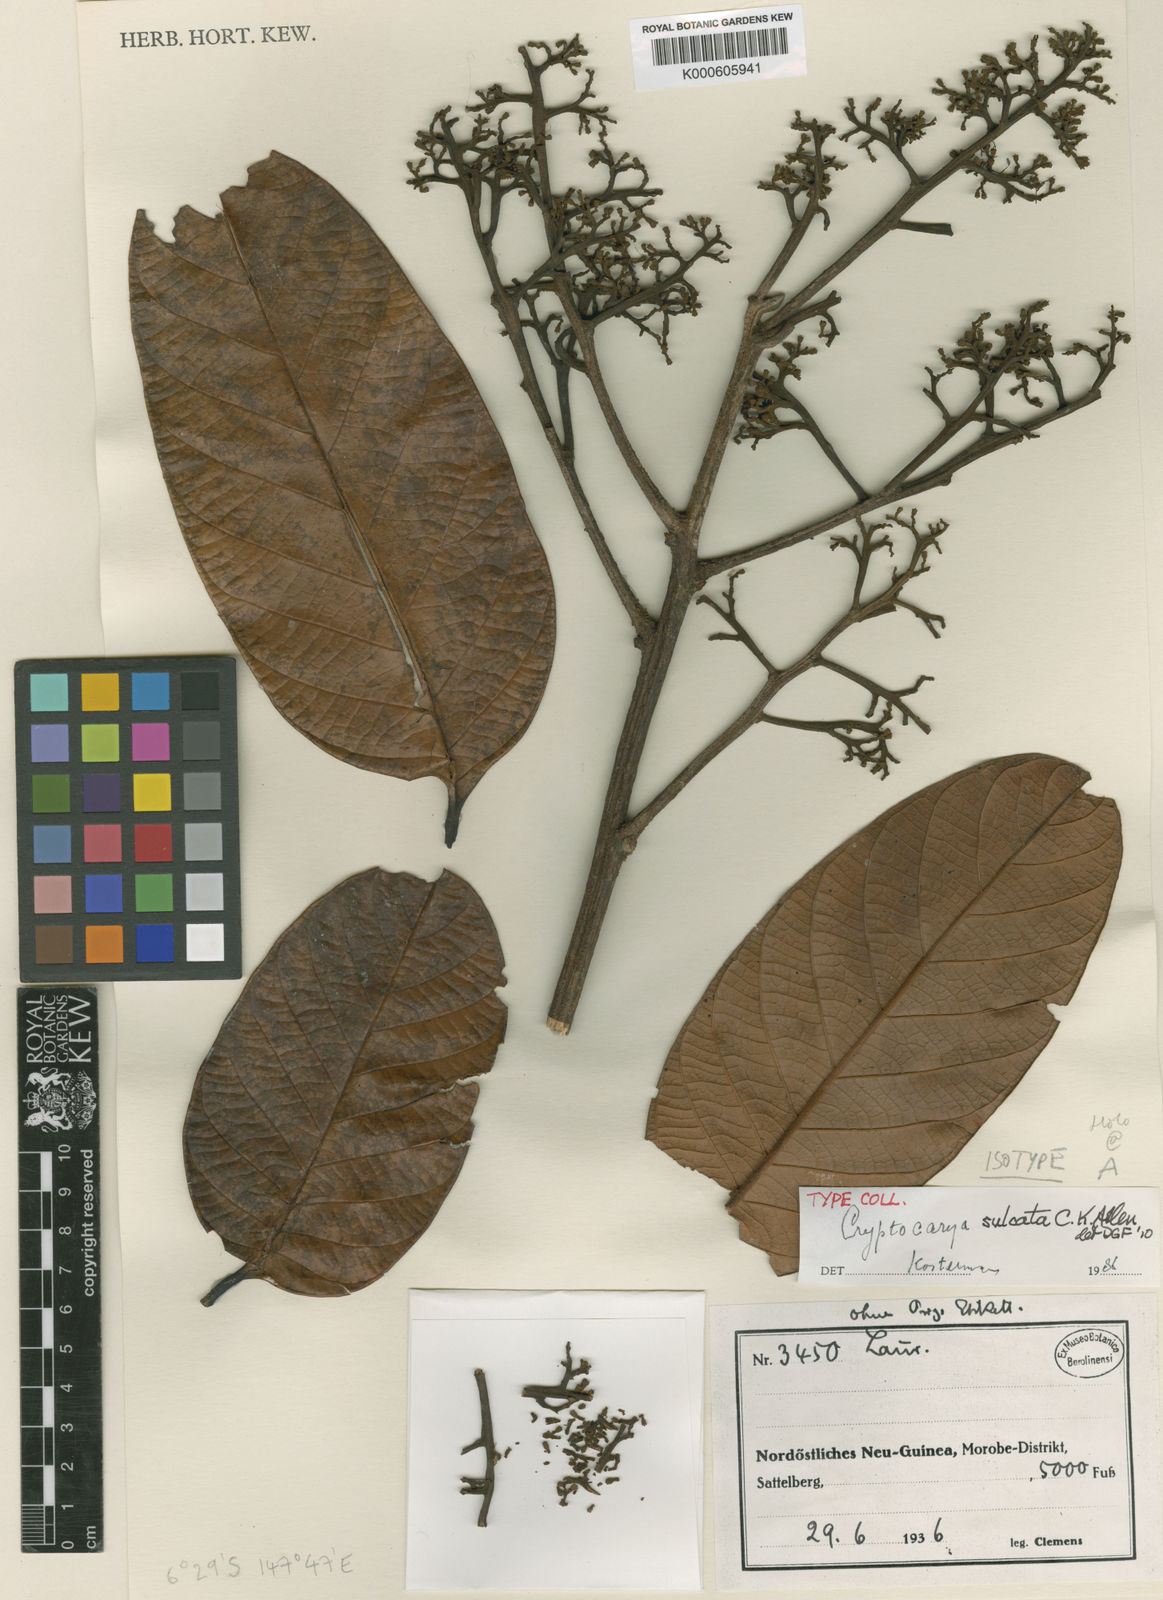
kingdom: Plantae
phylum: Tracheophyta
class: Magnoliopsida
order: Laurales
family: Lauraceae
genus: Cryptocarya
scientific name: Cryptocarya sulcata
